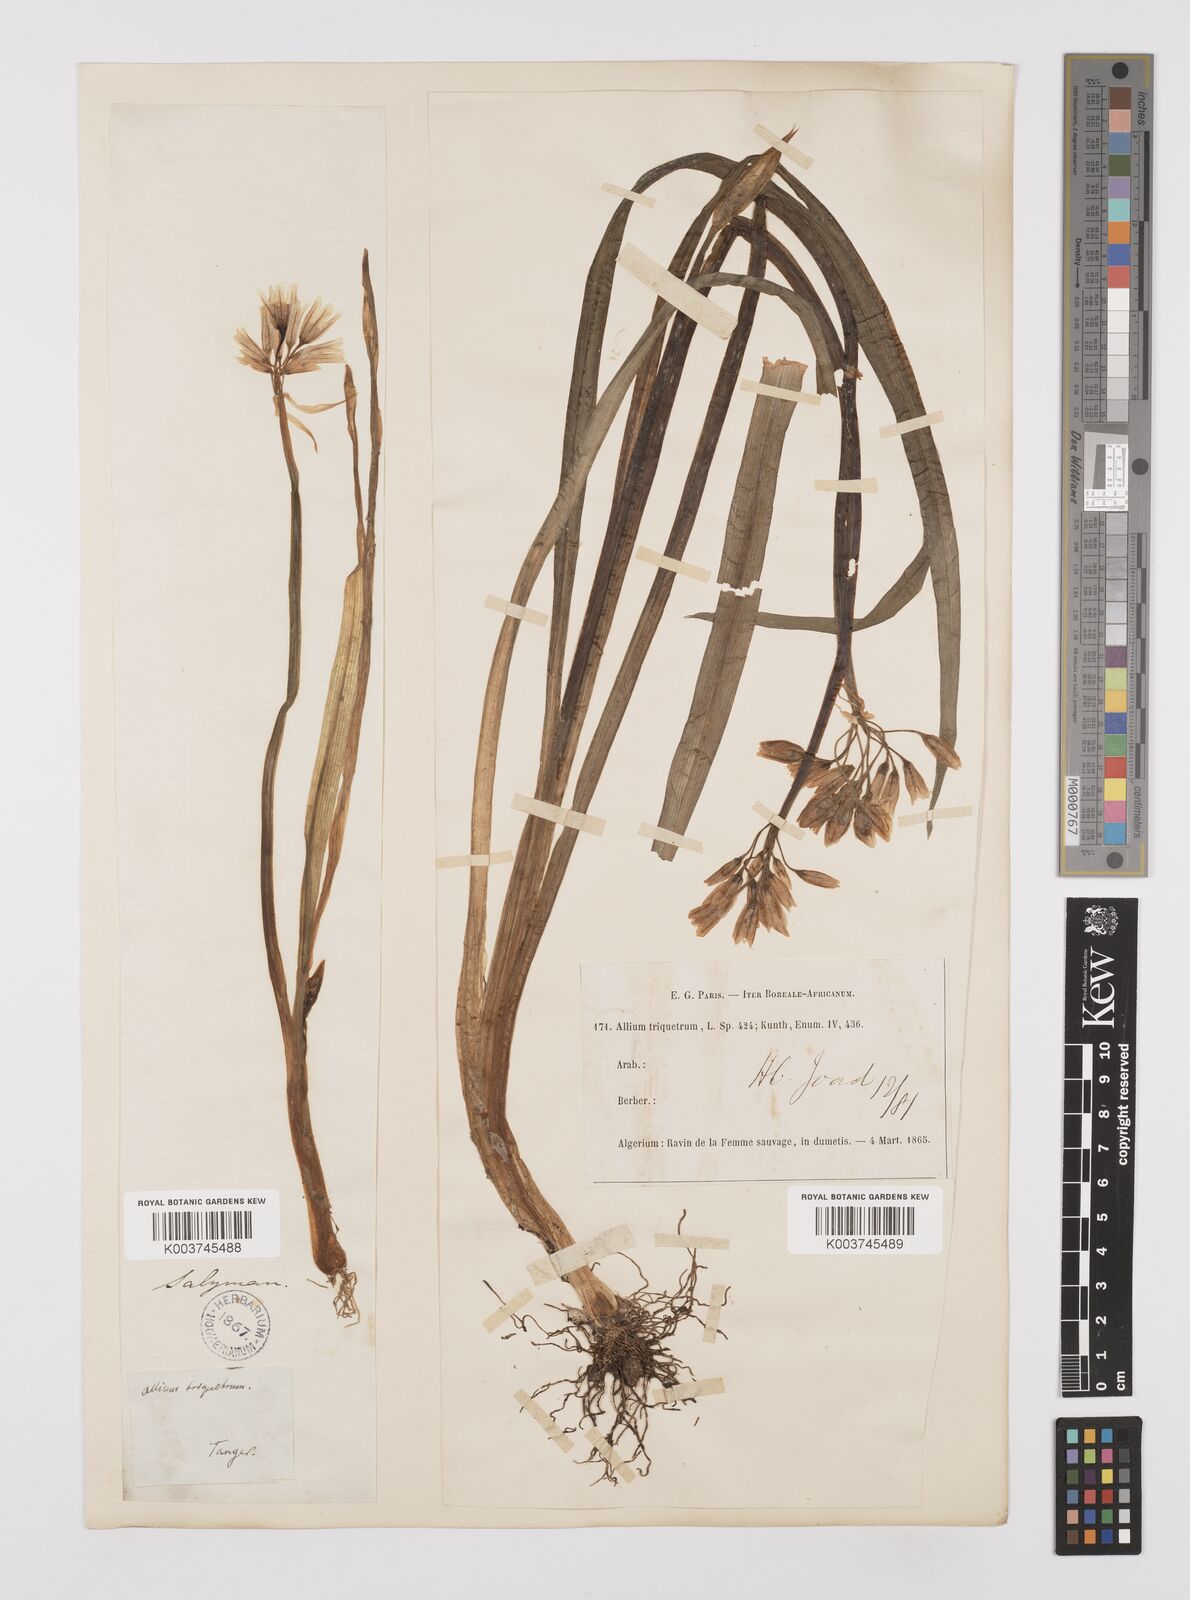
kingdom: Plantae
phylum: Tracheophyta
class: Liliopsida
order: Asparagales
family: Amaryllidaceae
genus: Allium
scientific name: Allium triquetrum
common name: Three-cornered garlic
